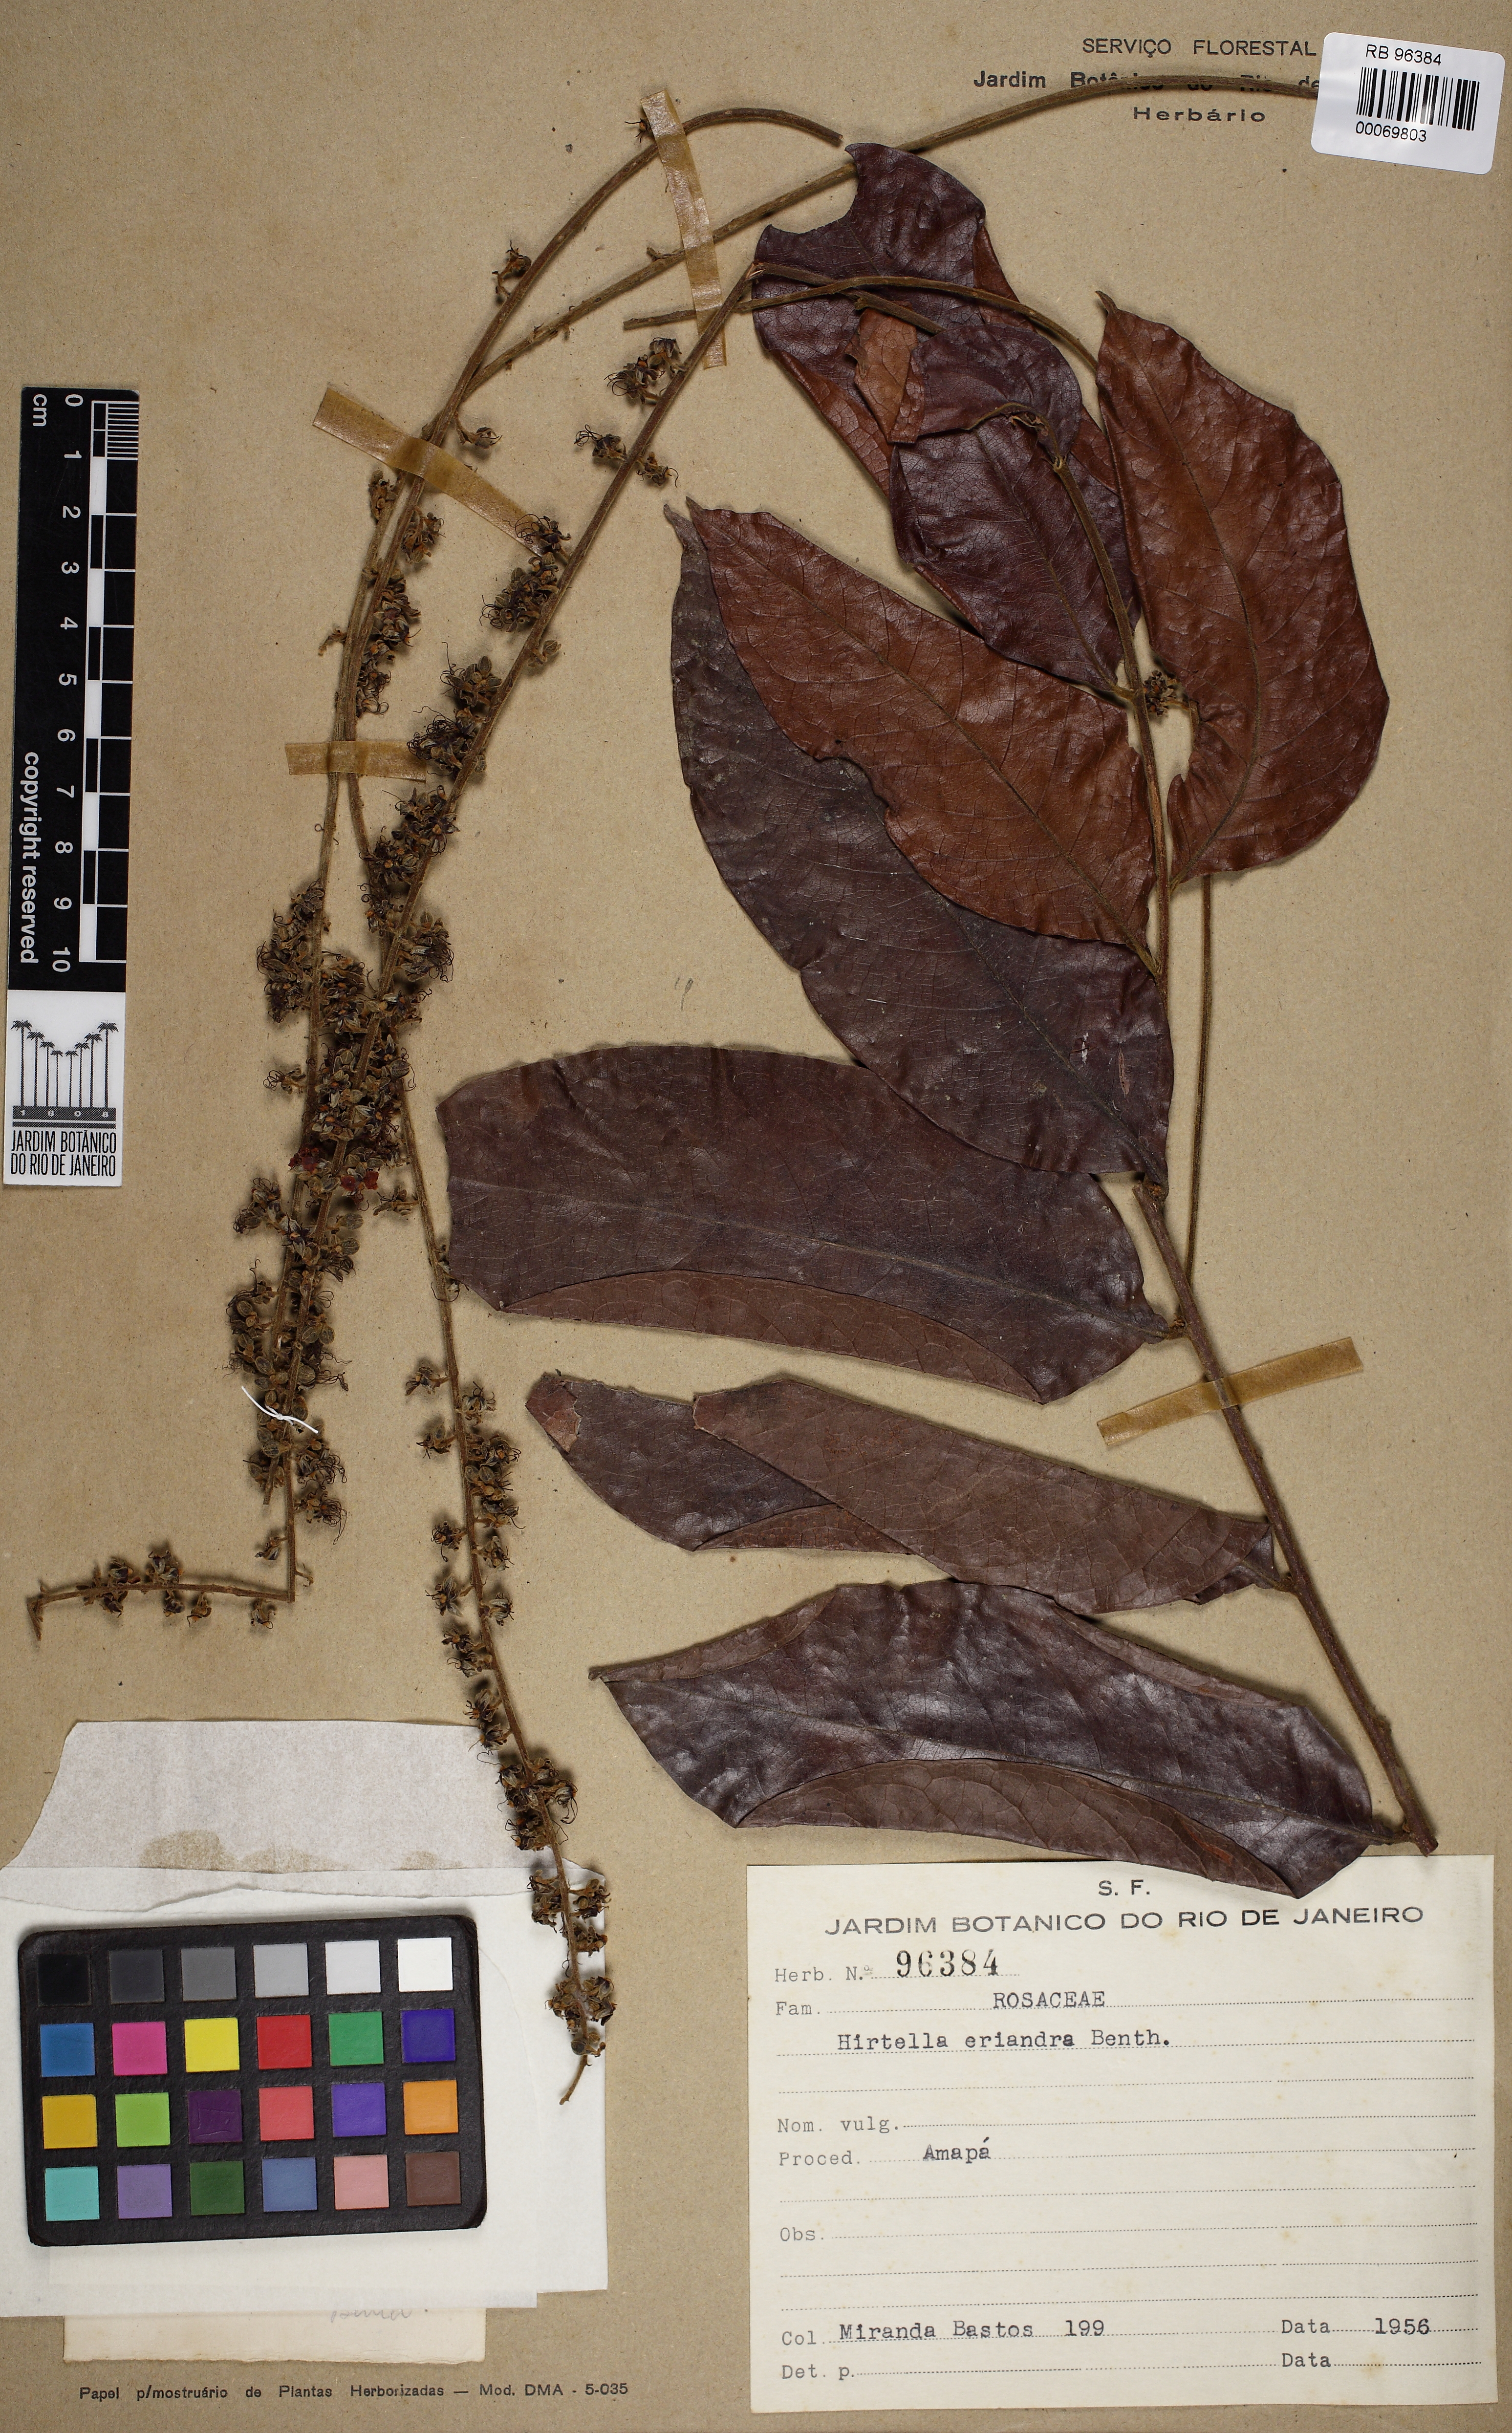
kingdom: Plantae
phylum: Tracheophyta
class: Magnoliopsida
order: Malpighiales
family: Chrysobalanaceae
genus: Hirtella
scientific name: Hirtella eriandra
